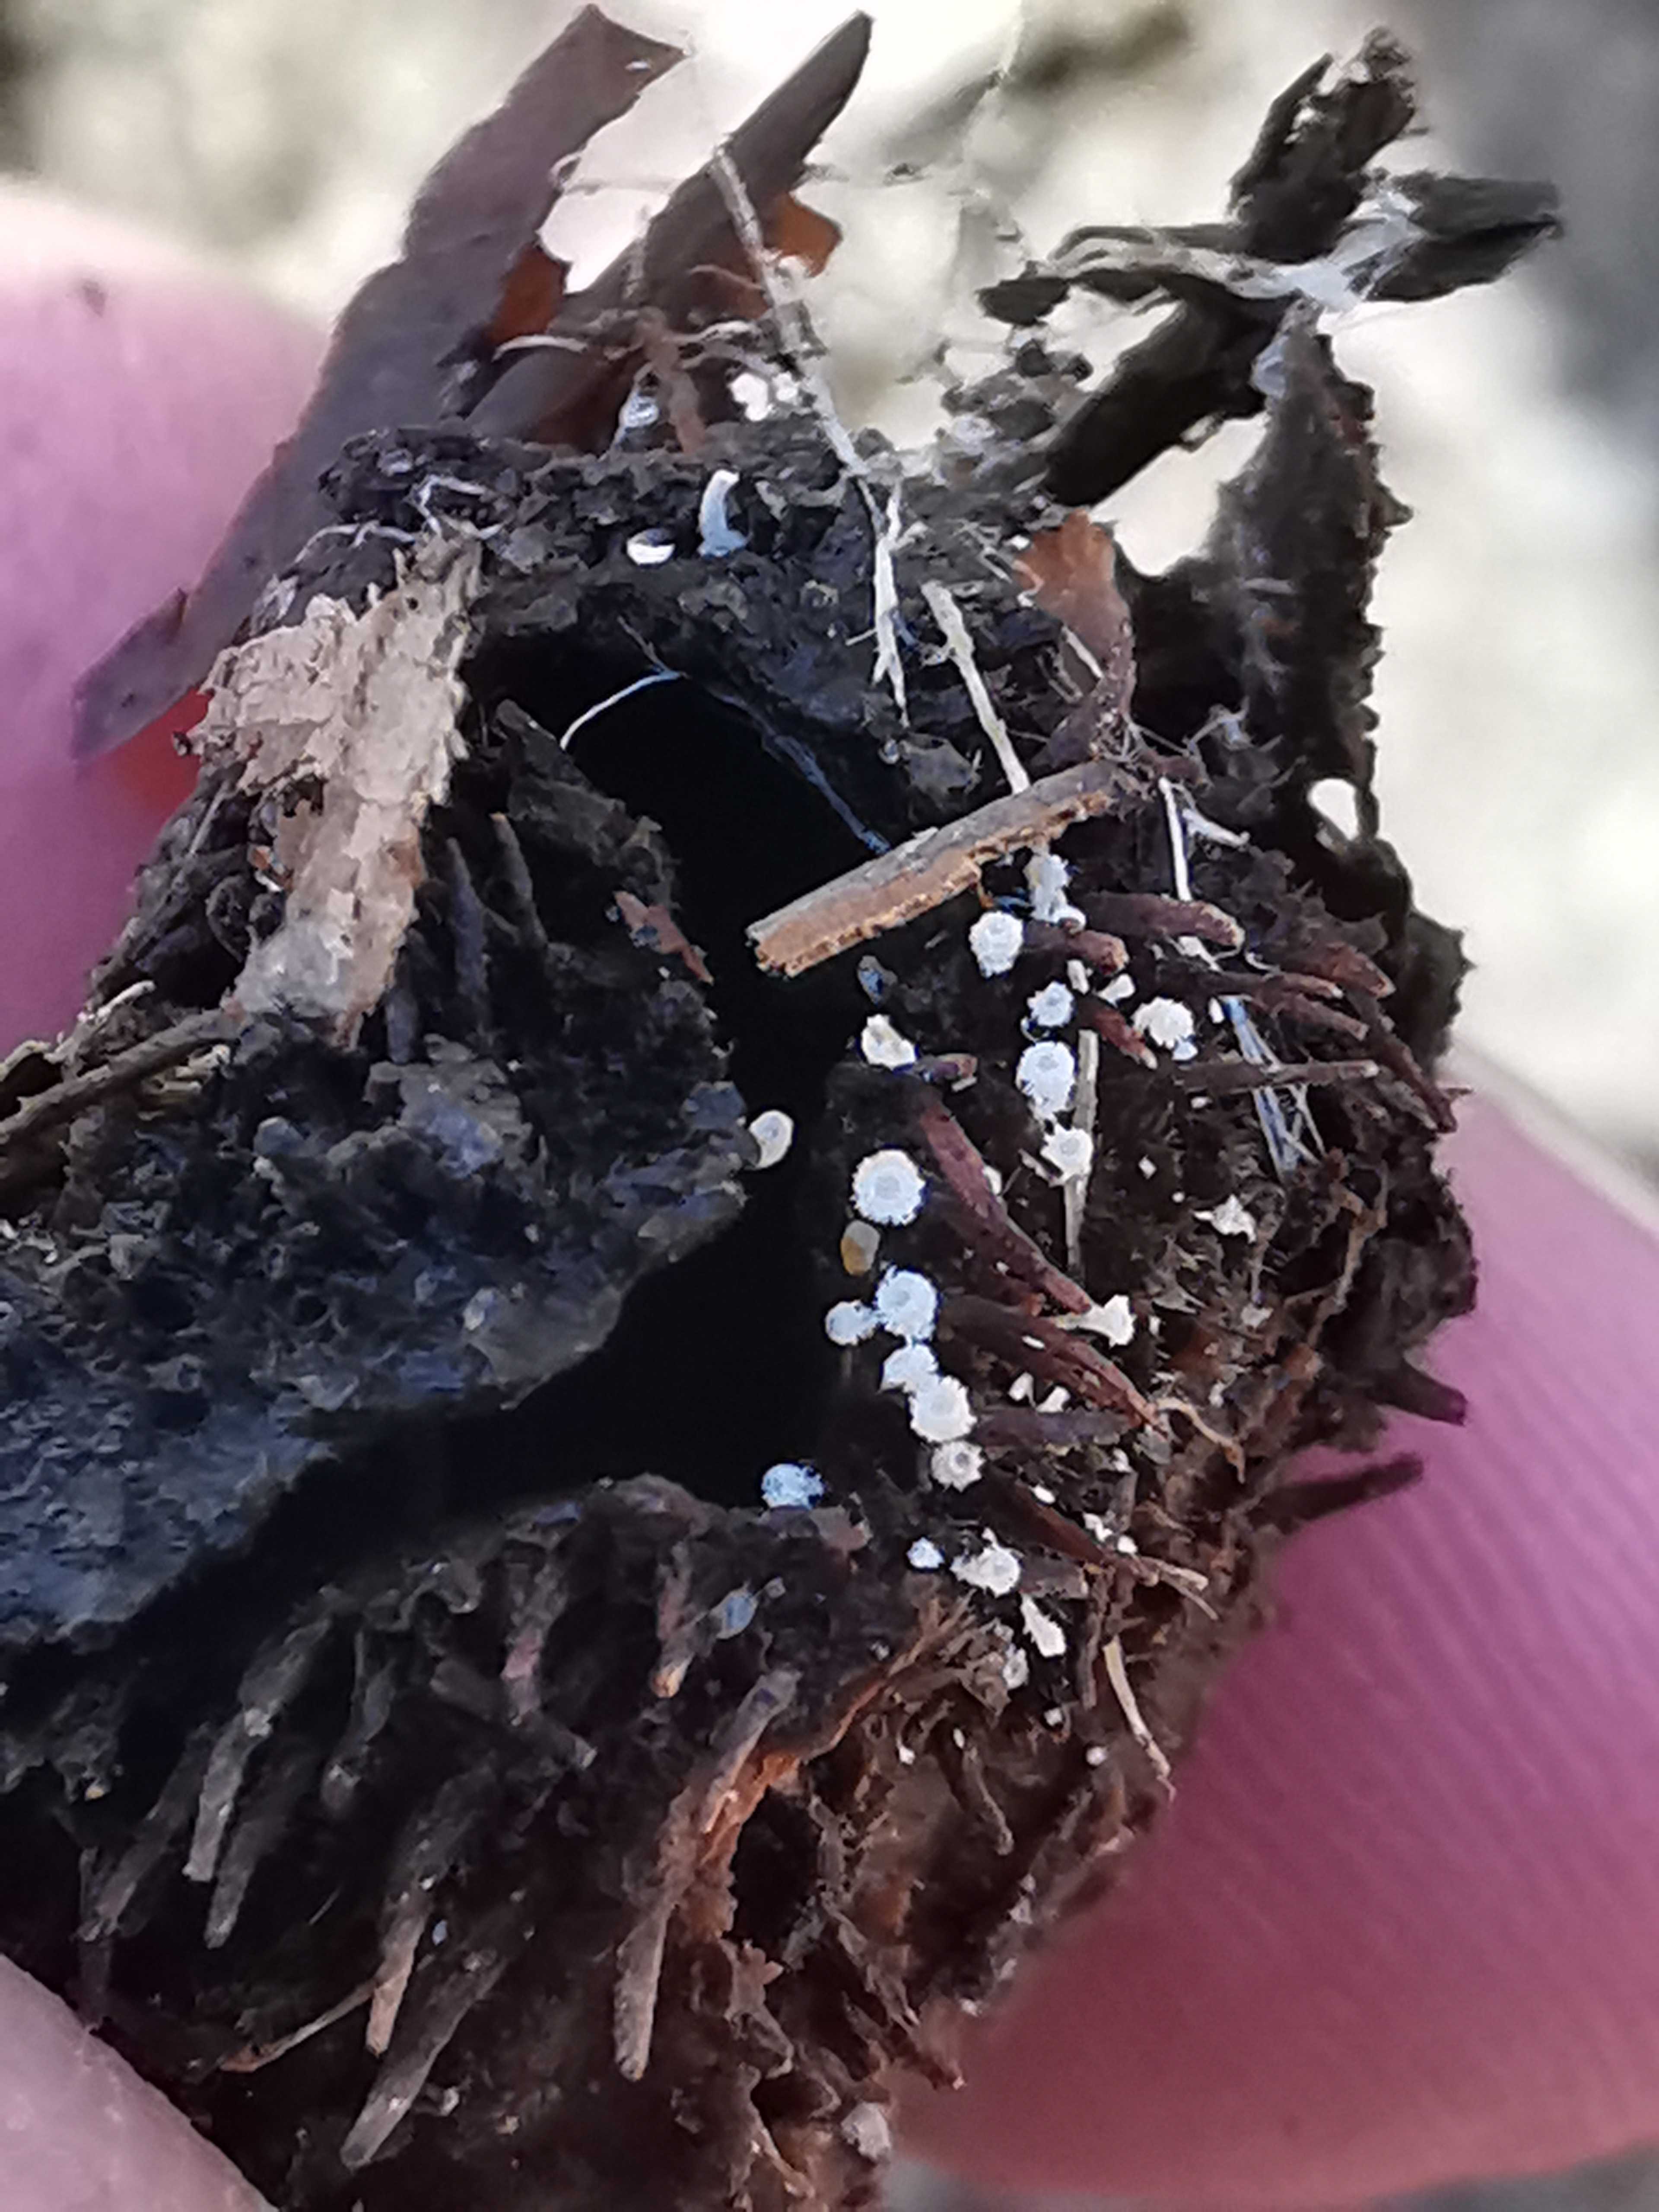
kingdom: Fungi
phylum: Ascomycota
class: Leotiomycetes
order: Helotiales
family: Lachnaceae
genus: Lachnum
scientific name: Lachnum virgineum
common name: jomfru-frynseskive
